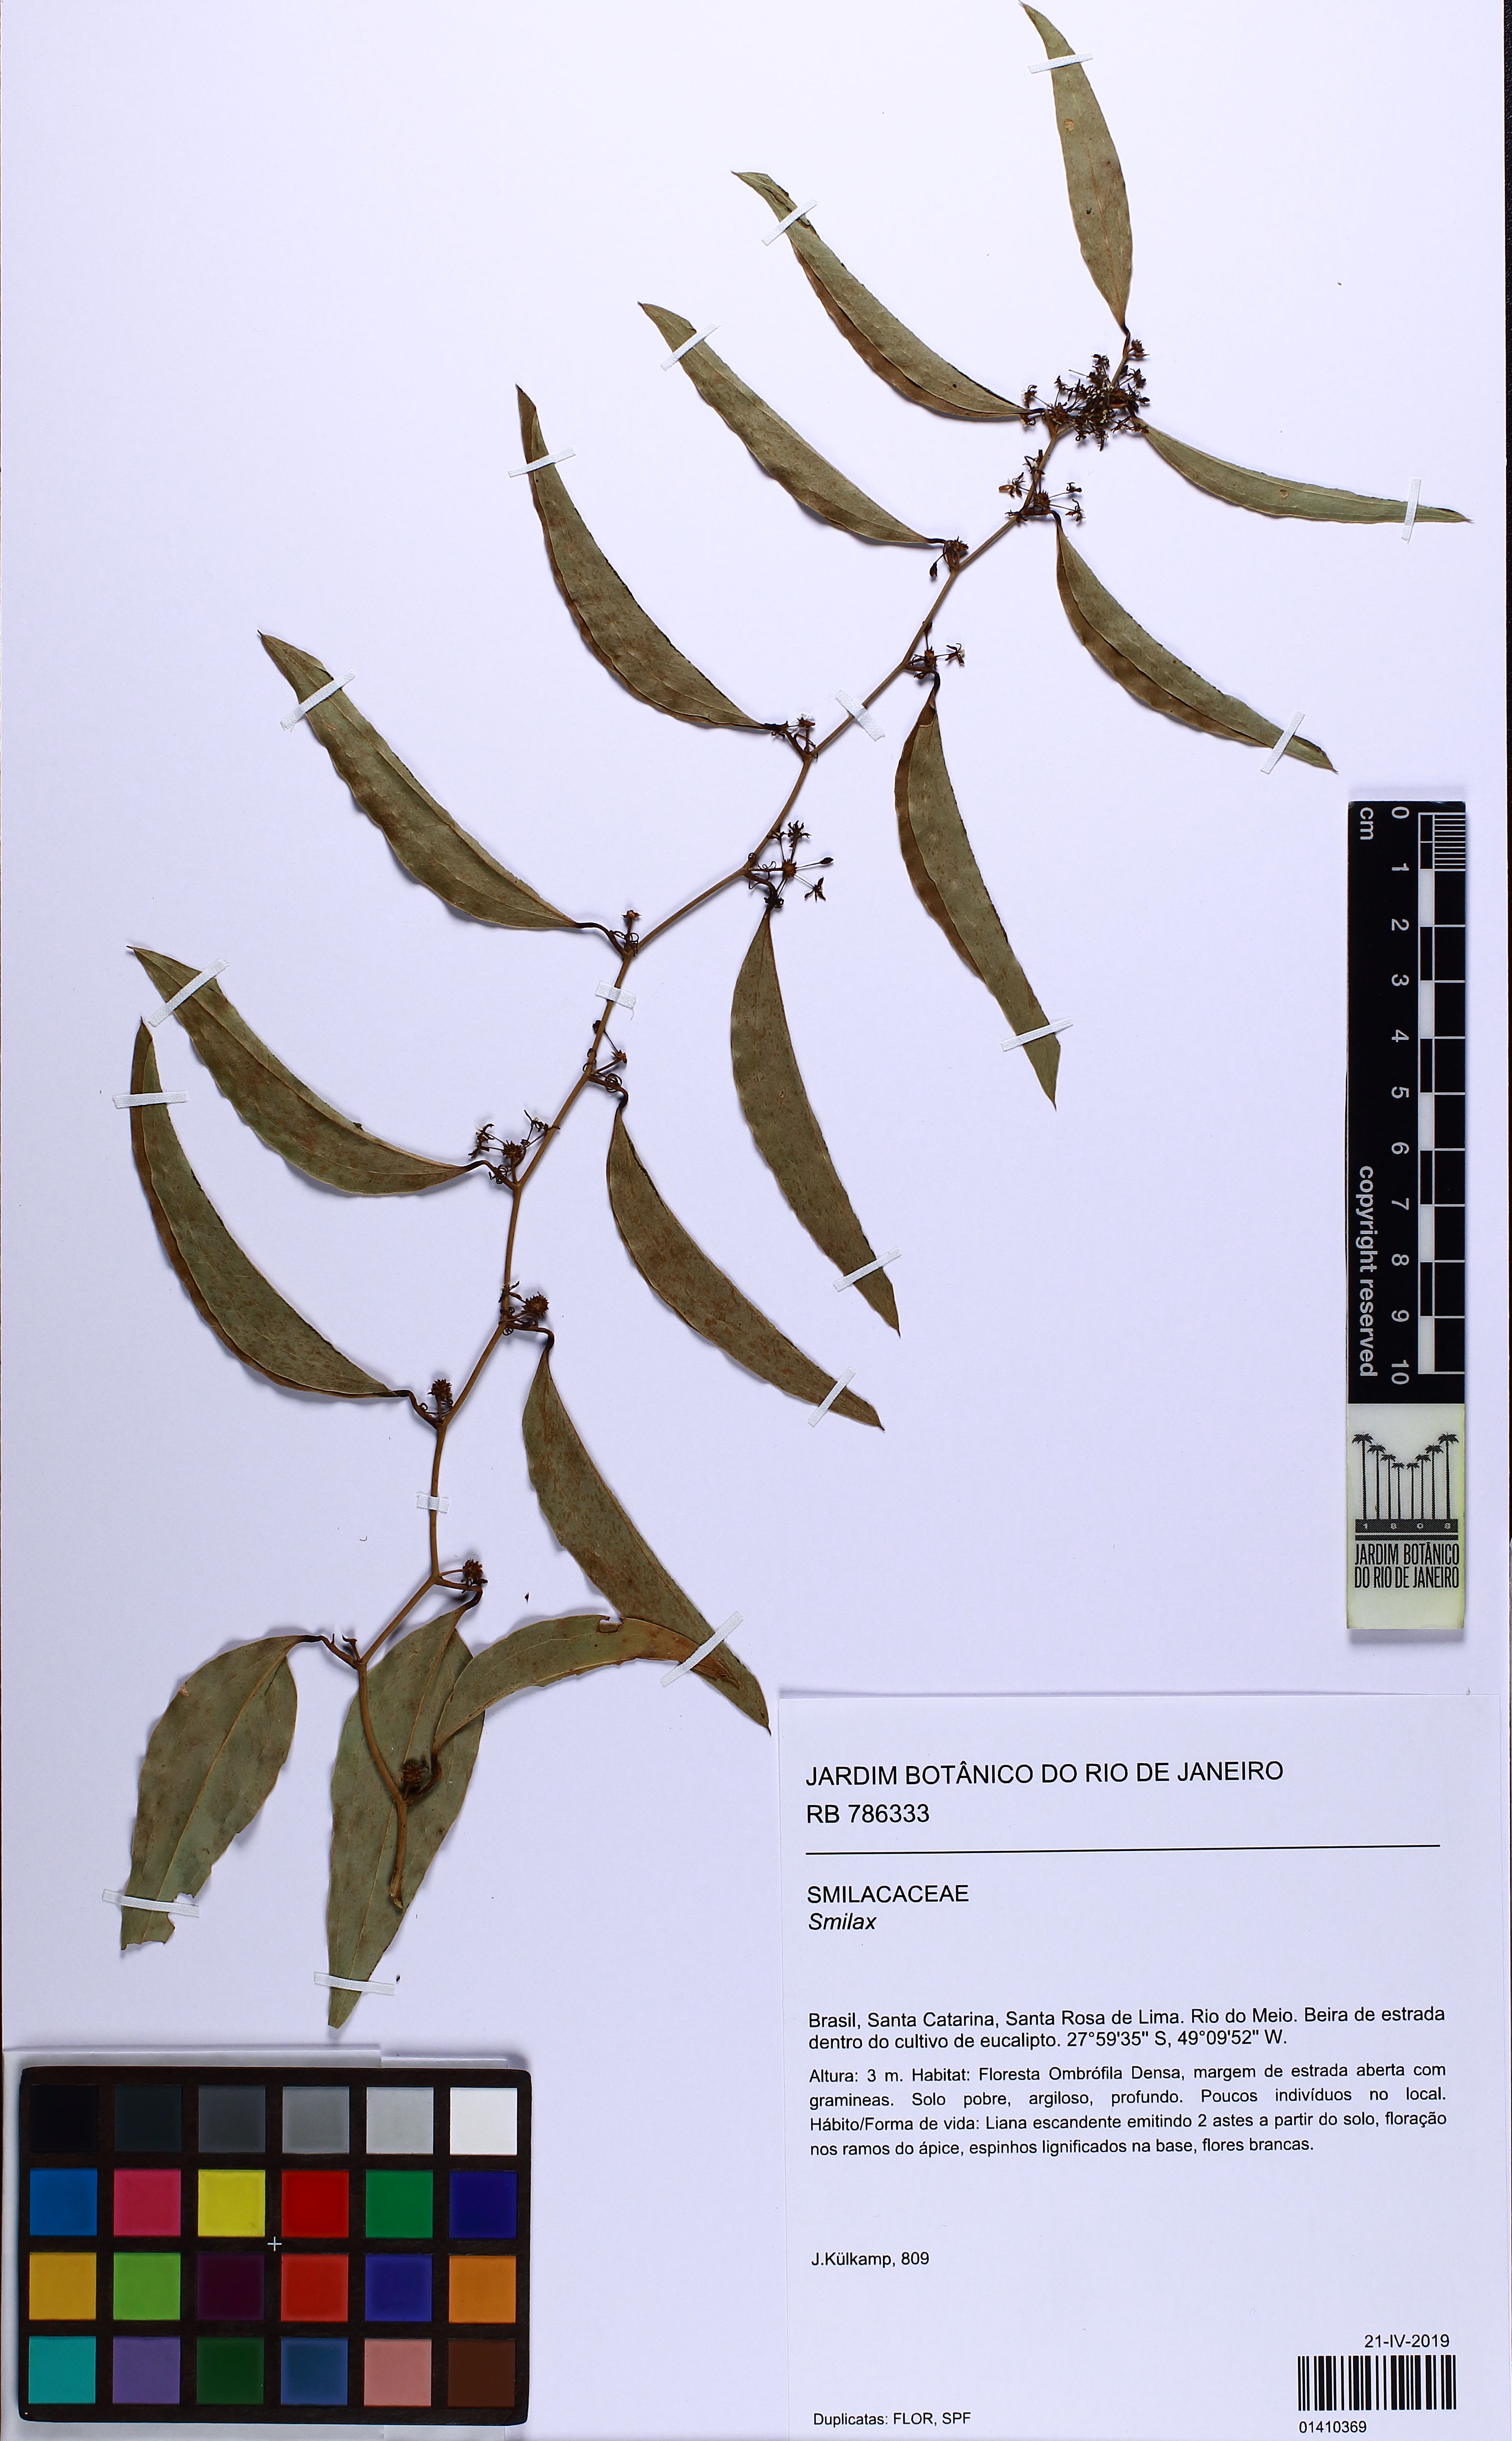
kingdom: Plantae
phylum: Tracheophyta
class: Liliopsida
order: Liliales
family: Smilacaceae
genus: Smilax
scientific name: Smilax
